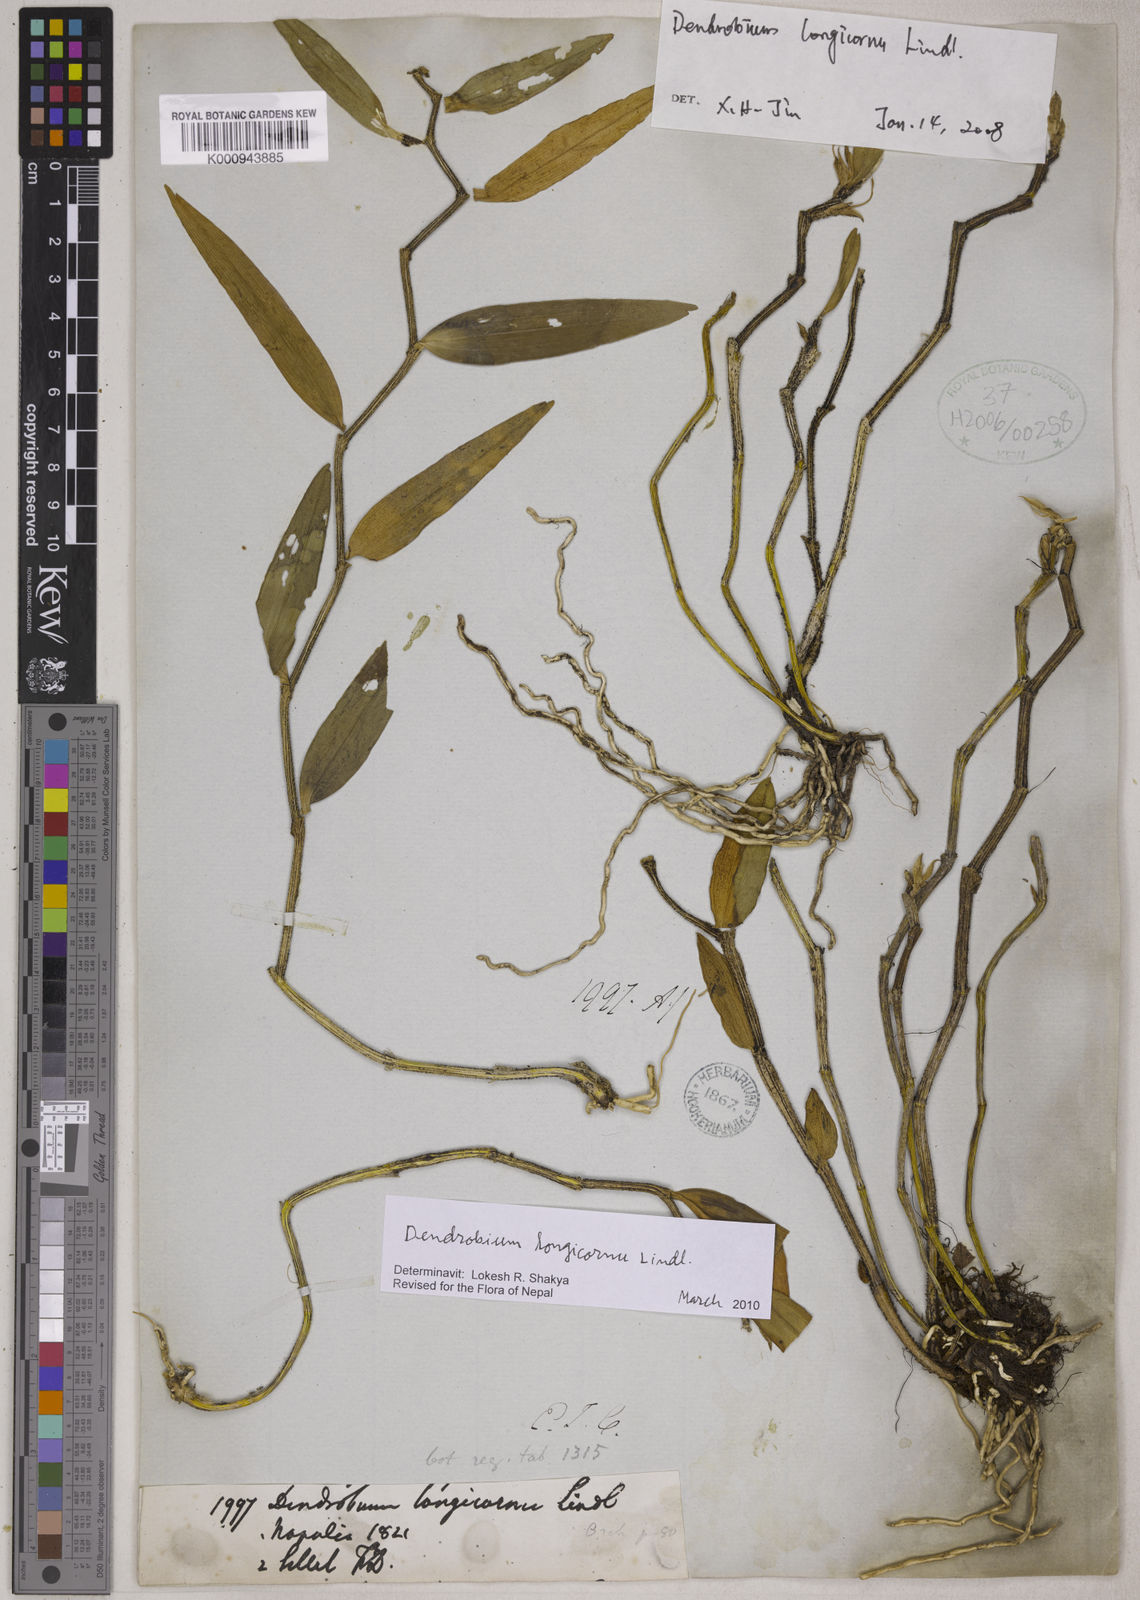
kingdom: Plantae
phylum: Tracheophyta
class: Liliopsida
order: Asparagales
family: Orchidaceae
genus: Dendrobium
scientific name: Dendrobium longicornu
